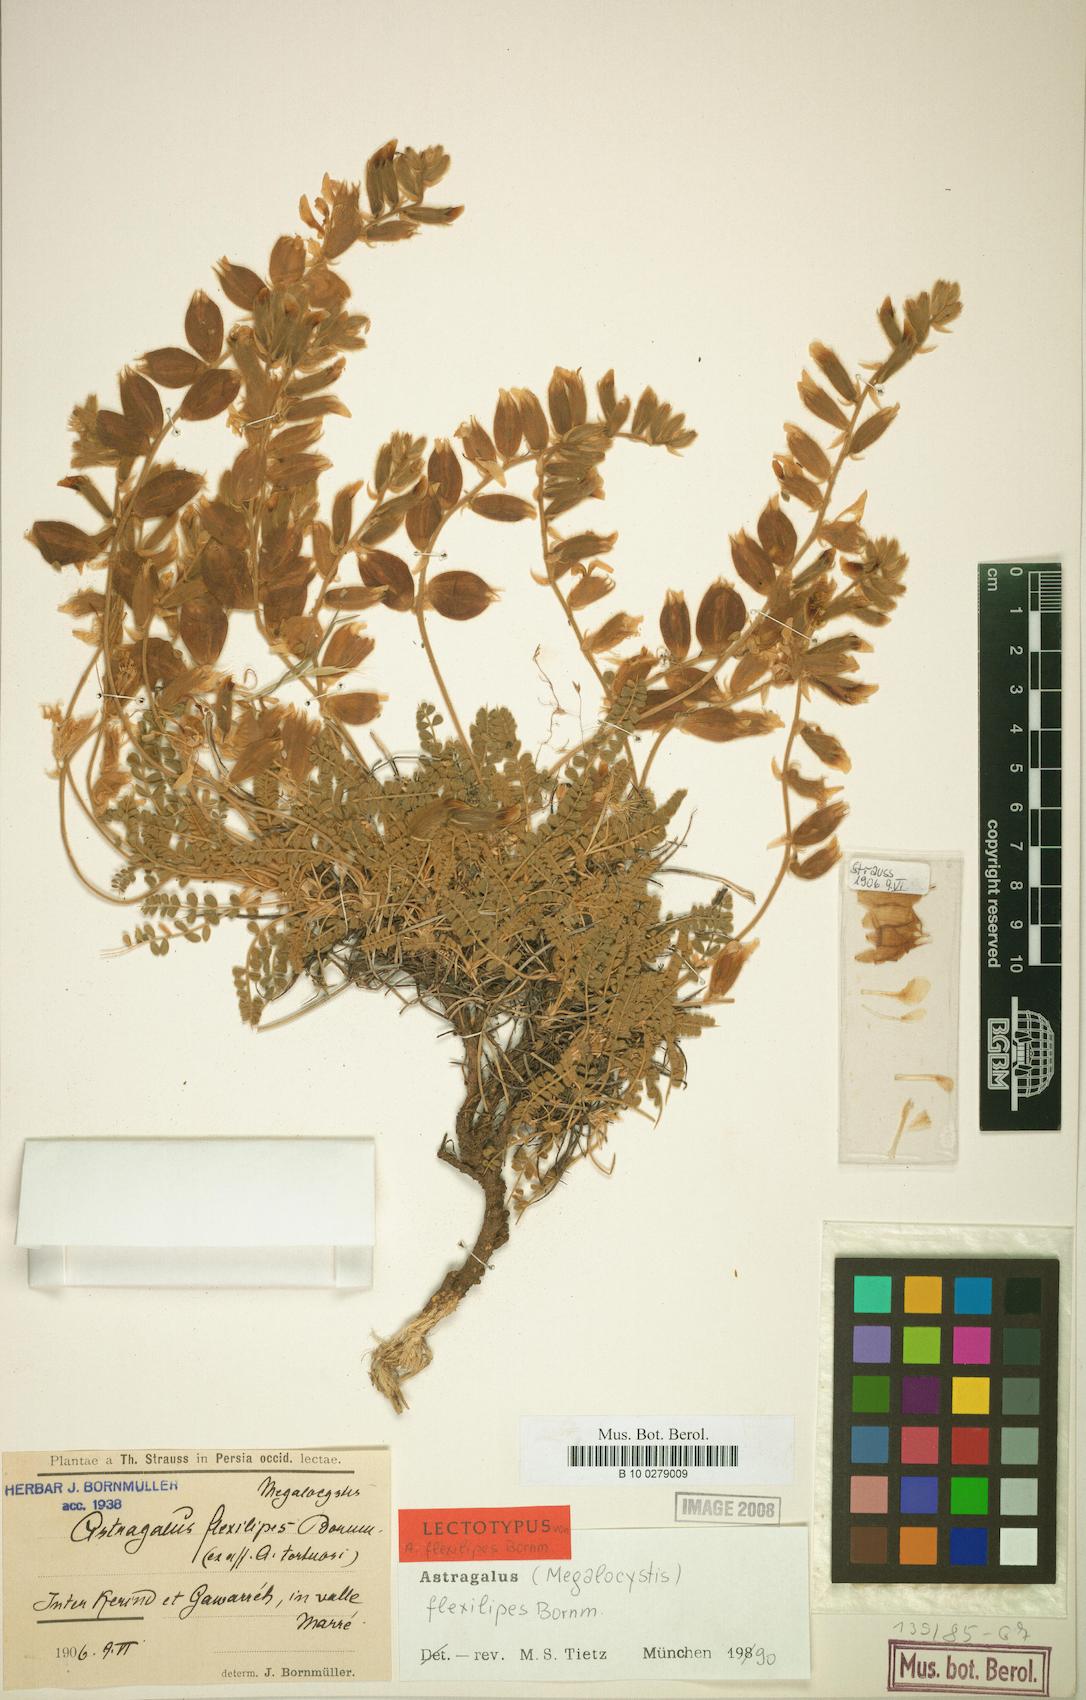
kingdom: Plantae
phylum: Tracheophyta
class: Magnoliopsida
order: Fabales
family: Fabaceae
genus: Astragalus
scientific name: Astragalus flexilipes
